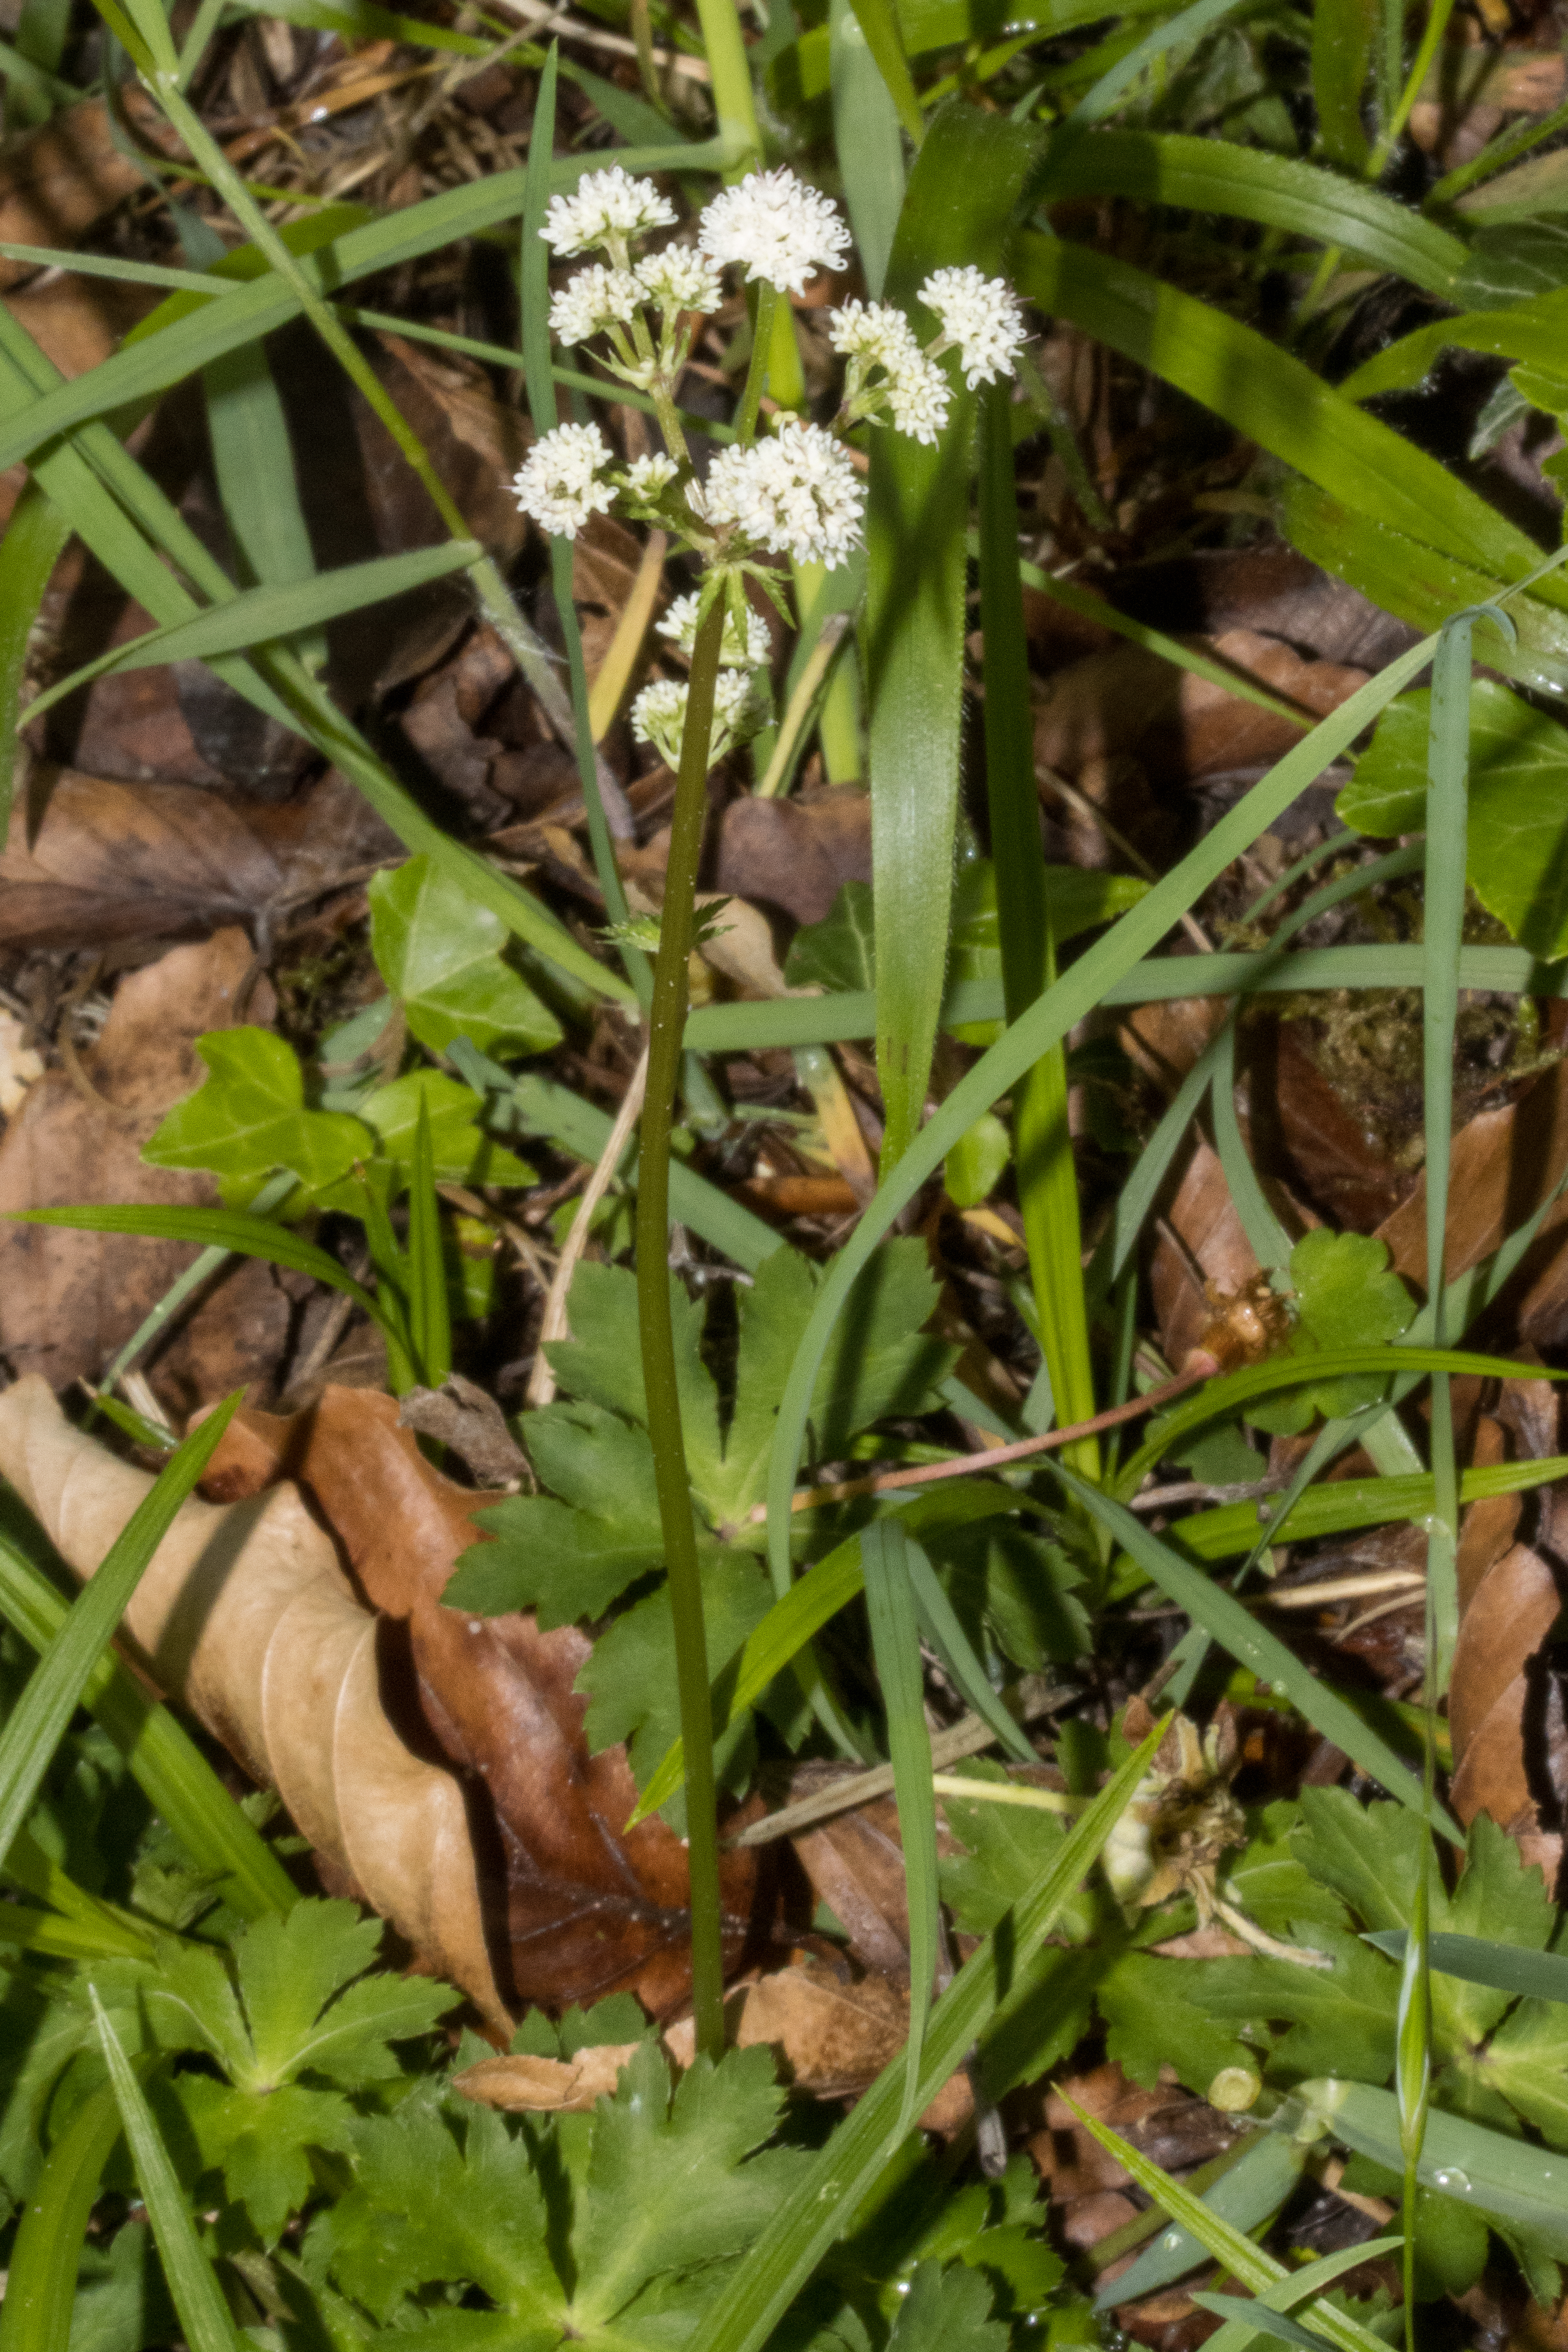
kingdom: Plantae
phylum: Tracheophyta
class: Magnoliopsida
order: Apiales
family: Apiaceae
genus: Sanicula
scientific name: Sanicula europaea
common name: Sanikel
